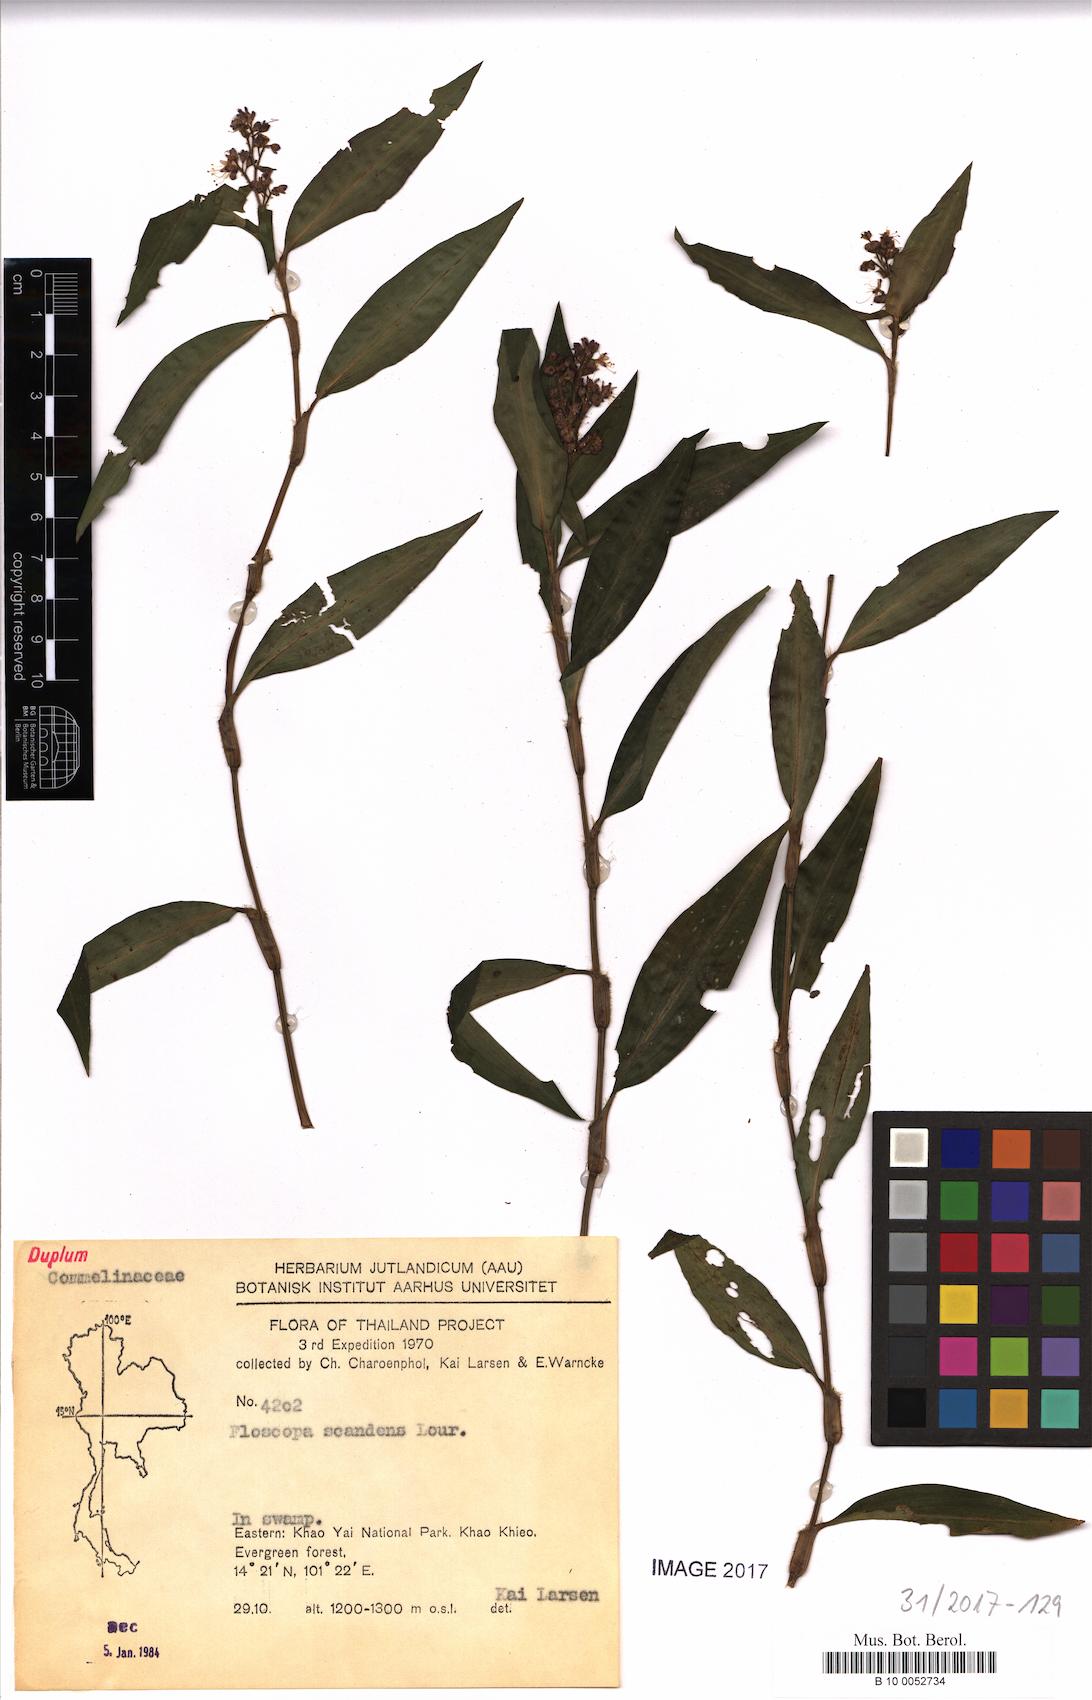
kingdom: Plantae
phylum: Tracheophyta
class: Liliopsida
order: Commelinales
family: Commelinaceae
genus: Floscopa
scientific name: Floscopa scandens
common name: Climbing flower cup
